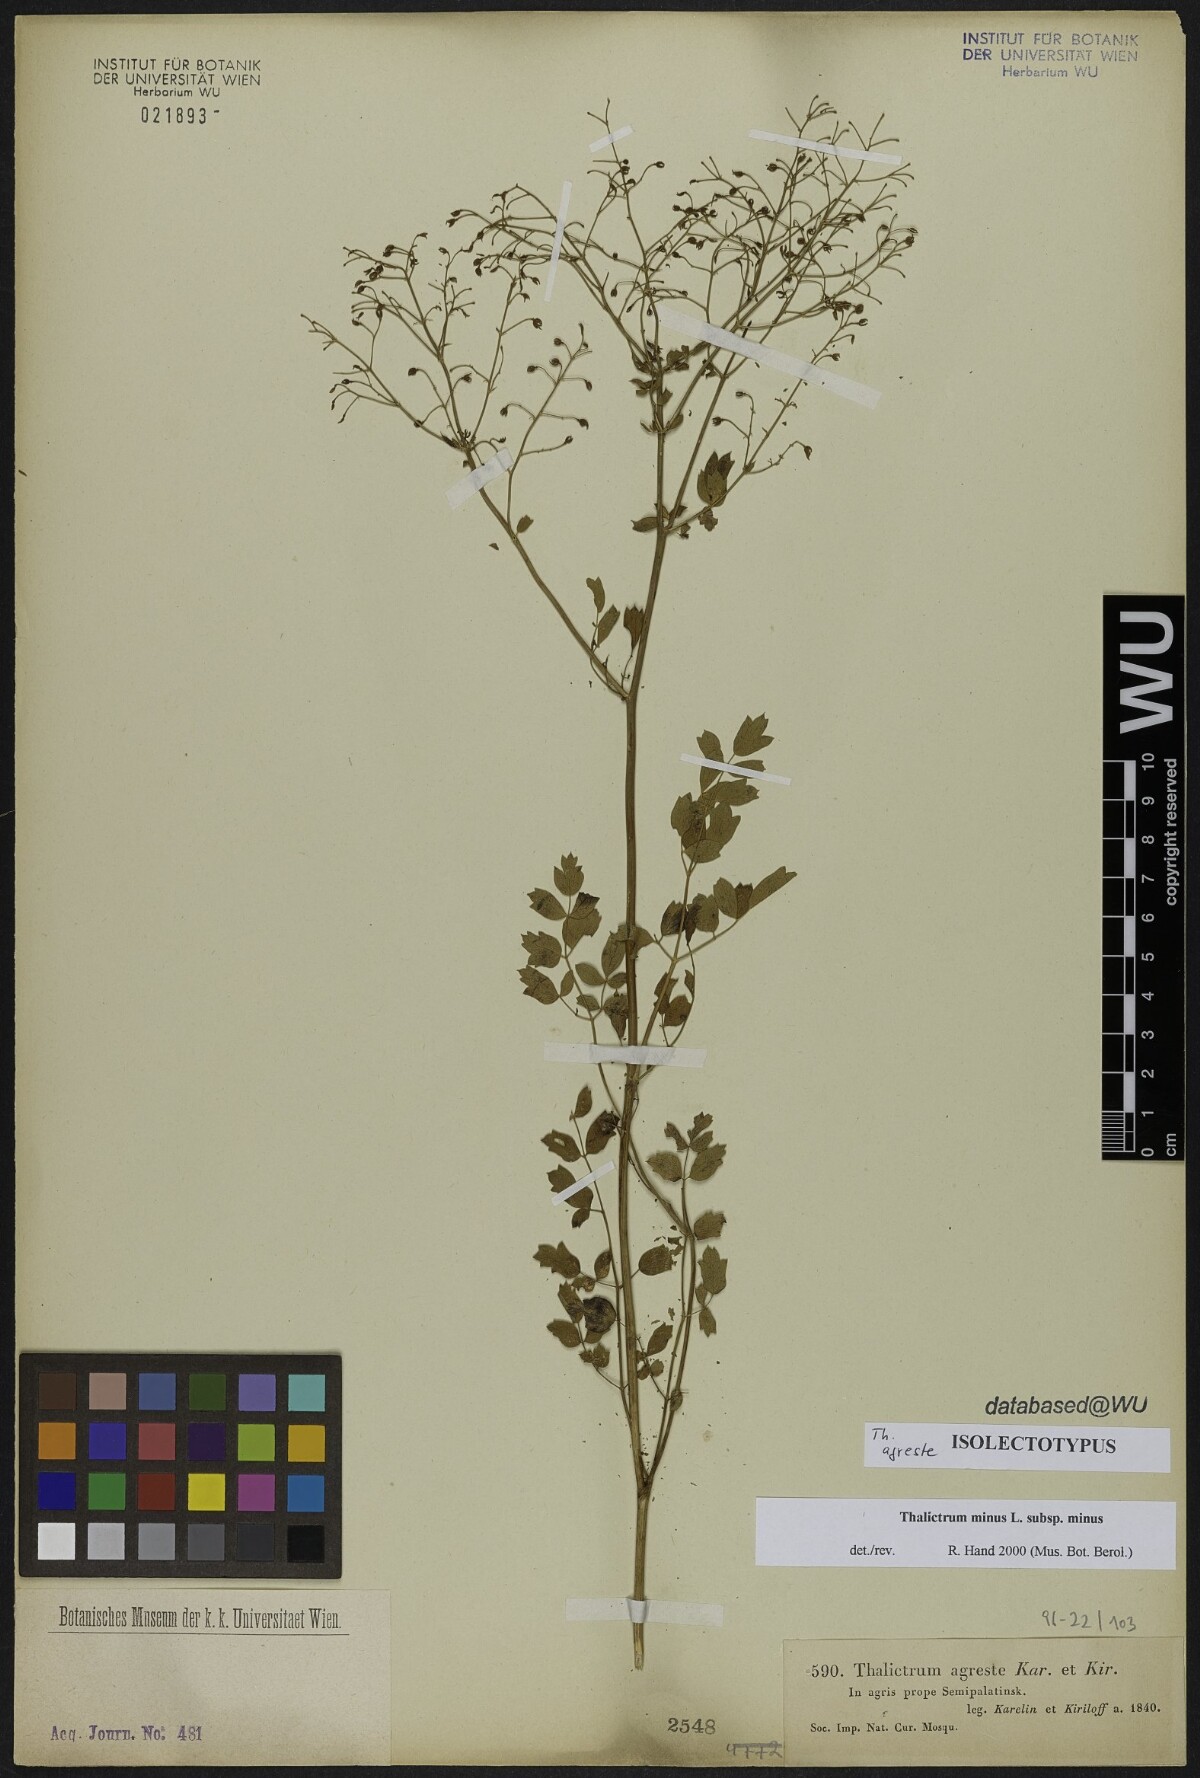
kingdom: Plantae
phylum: Tracheophyta
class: Magnoliopsida
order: Ranunculales
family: Ranunculaceae
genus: Thalictrum
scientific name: Thalictrum minus
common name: Lesser meadow-rue
